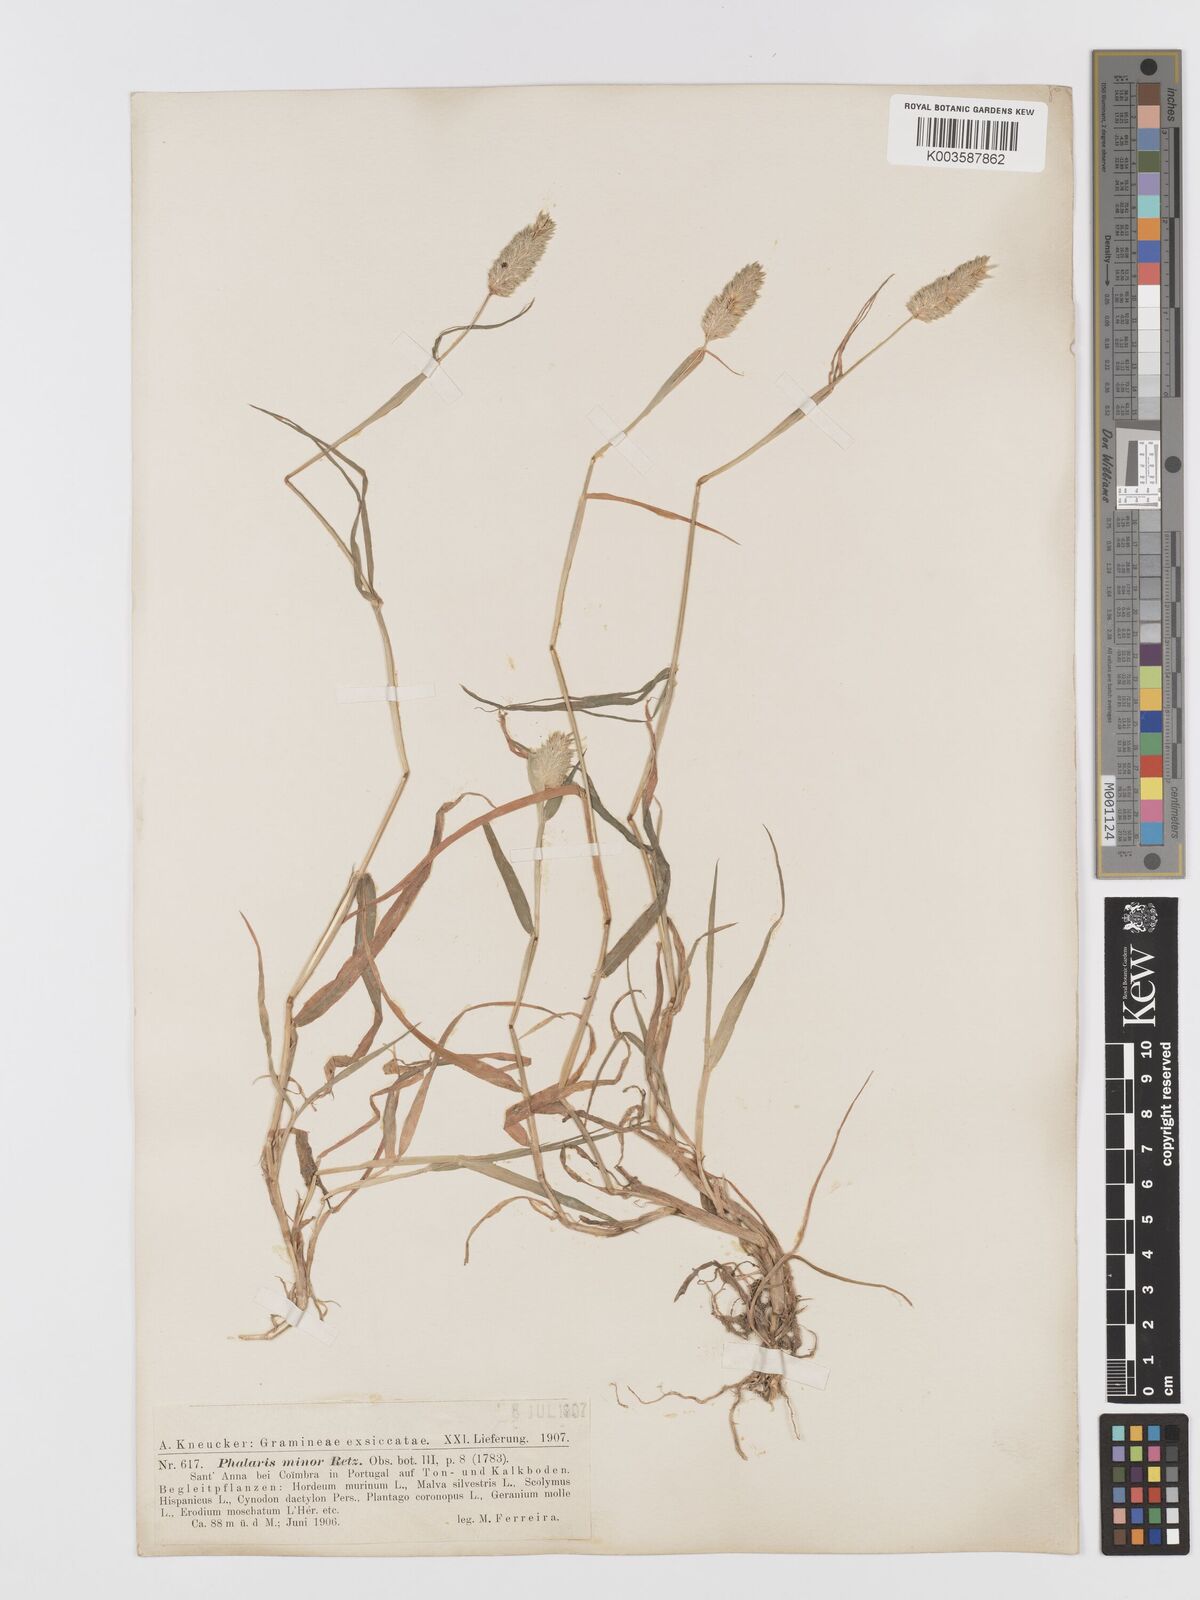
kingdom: Plantae
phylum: Tracheophyta
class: Liliopsida
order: Poales
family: Poaceae
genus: Phalaris
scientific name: Phalaris minor
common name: Littleseed canarygrass
